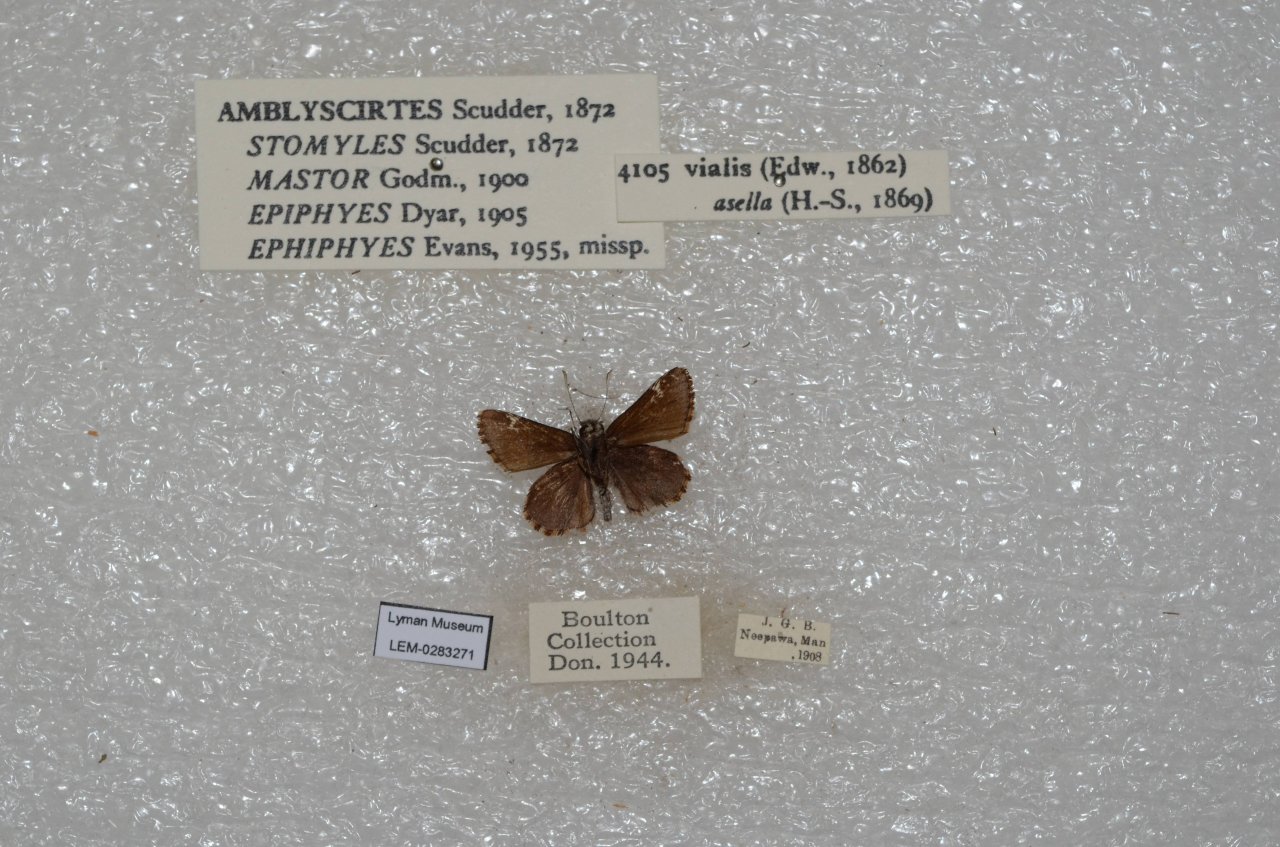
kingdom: Animalia
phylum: Arthropoda
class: Insecta
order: Lepidoptera
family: Hesperiidae
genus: Mastor
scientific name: Mastor vialis
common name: Common Roadside-Skipper
